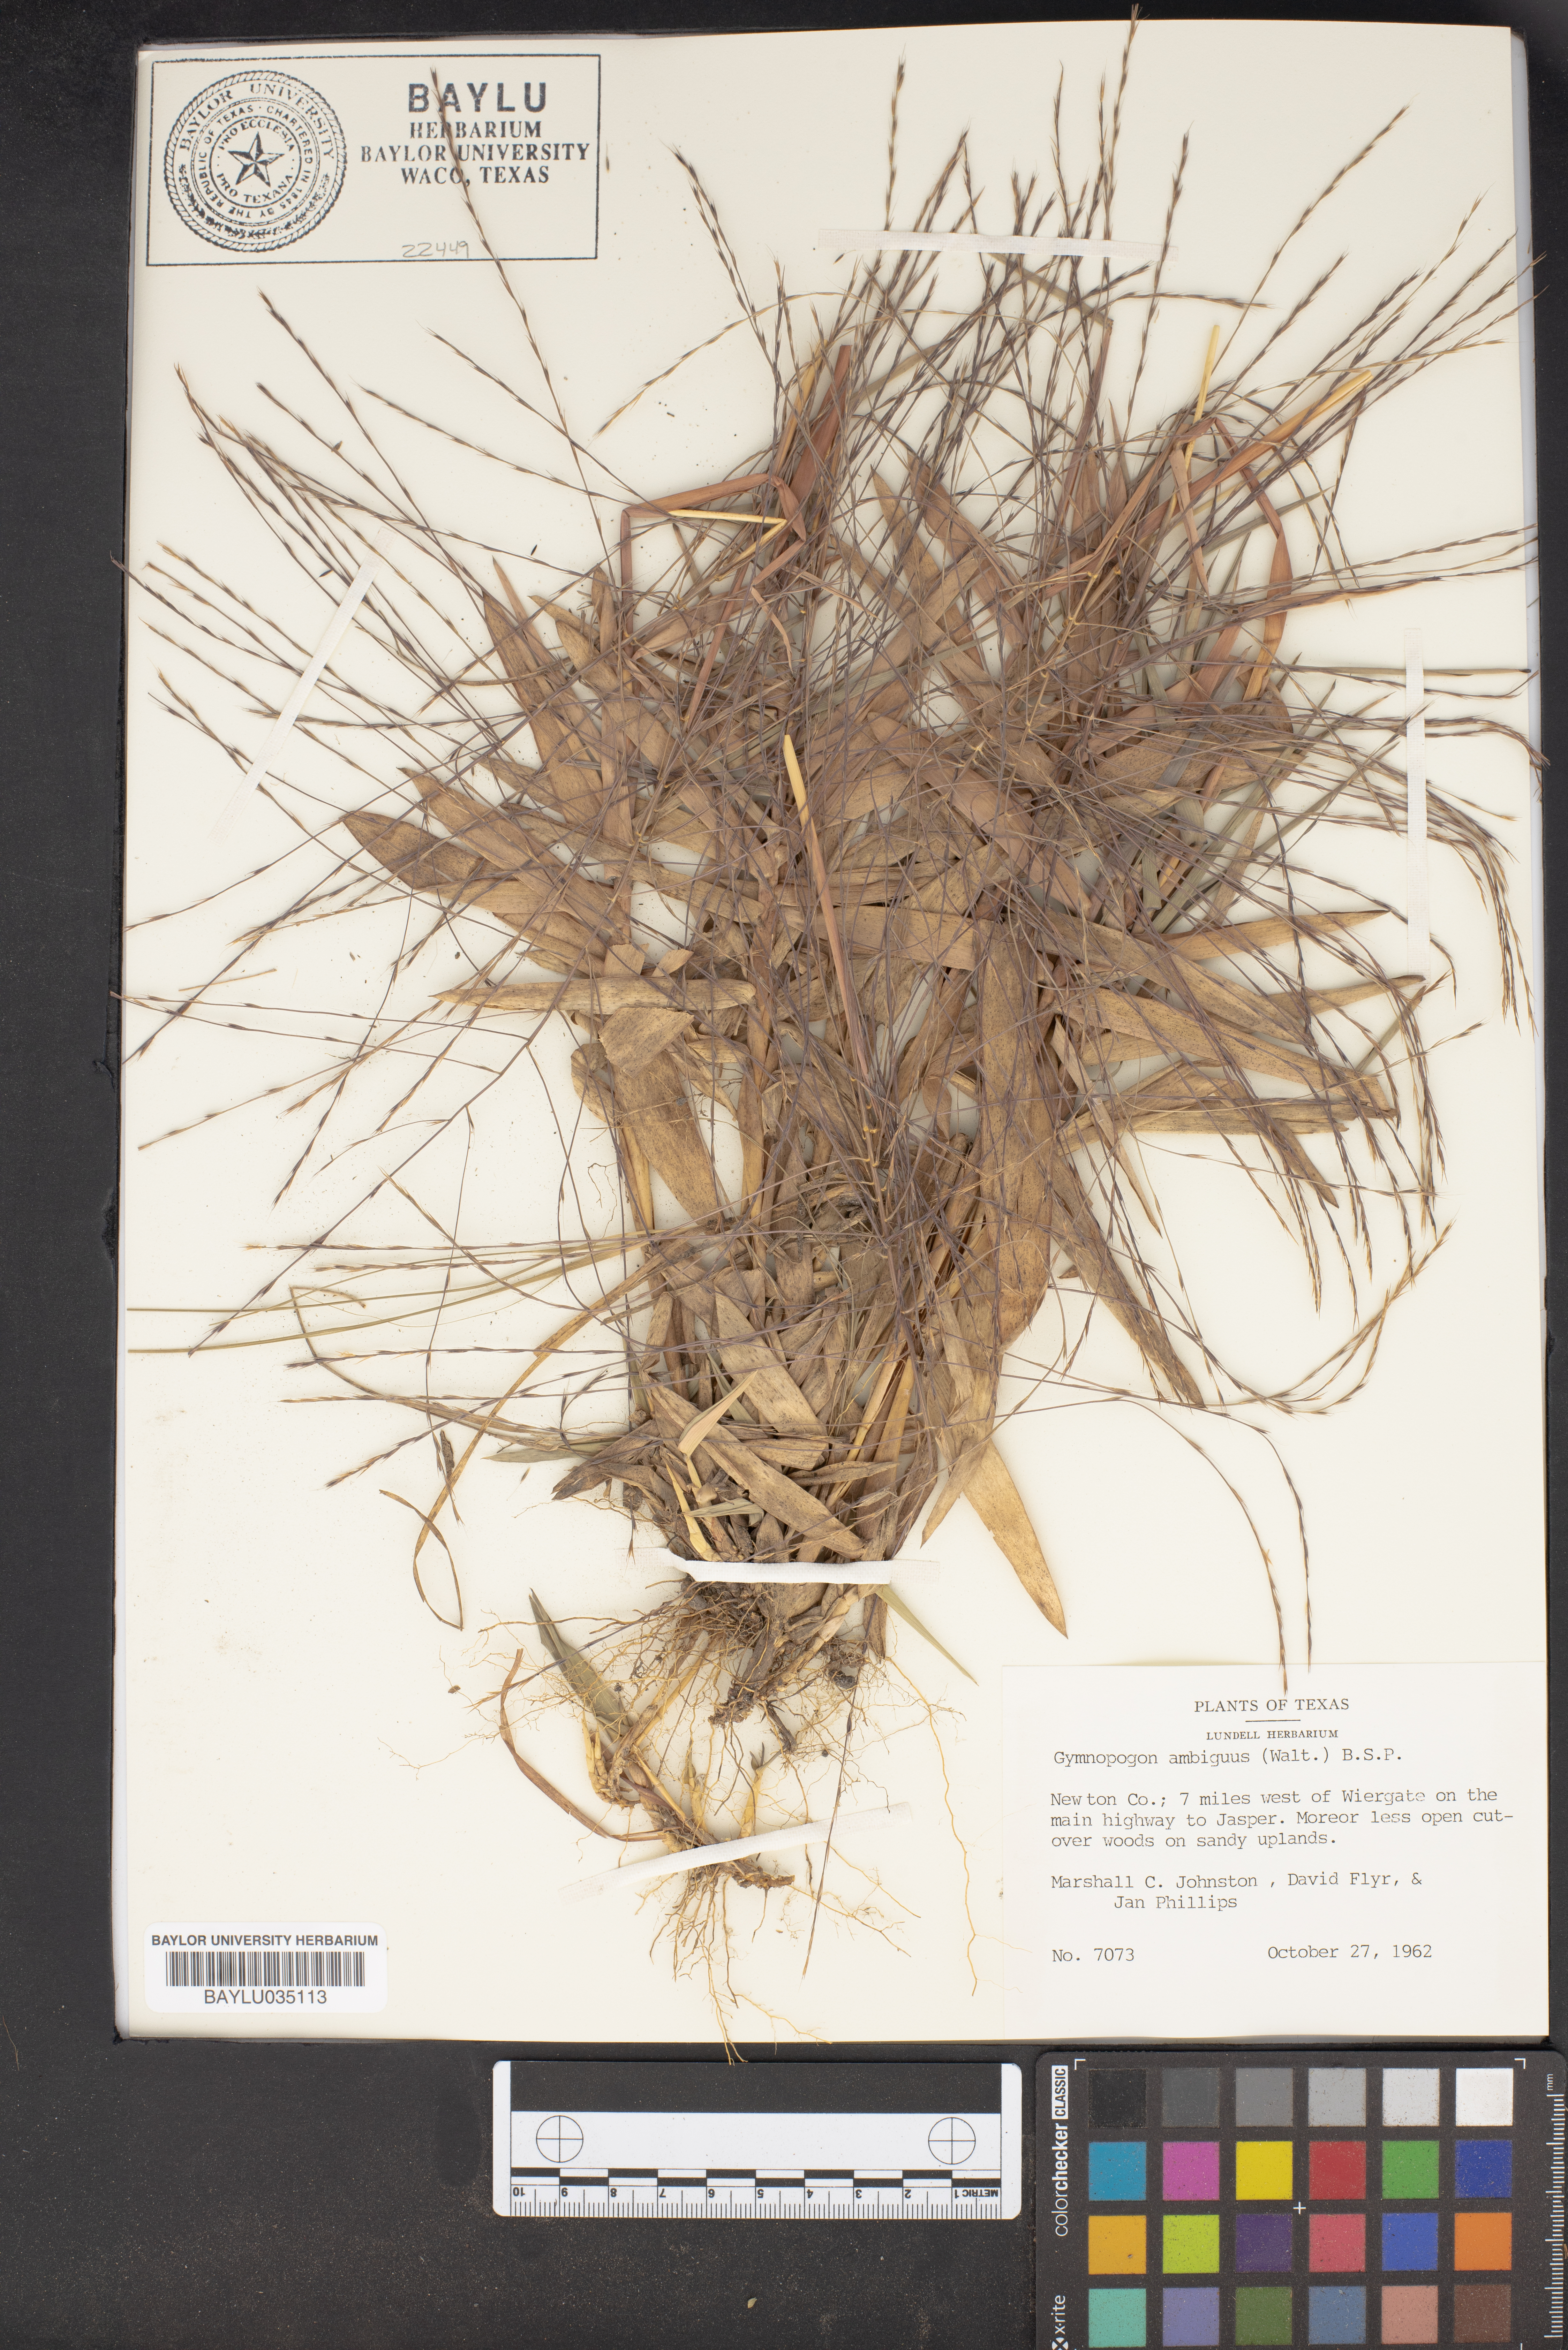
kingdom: Plantae
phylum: Tracheophyta
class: Liliopsida
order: Poales
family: Poaceae
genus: Gymnopogon
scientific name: Gymnopogon ambiguus
